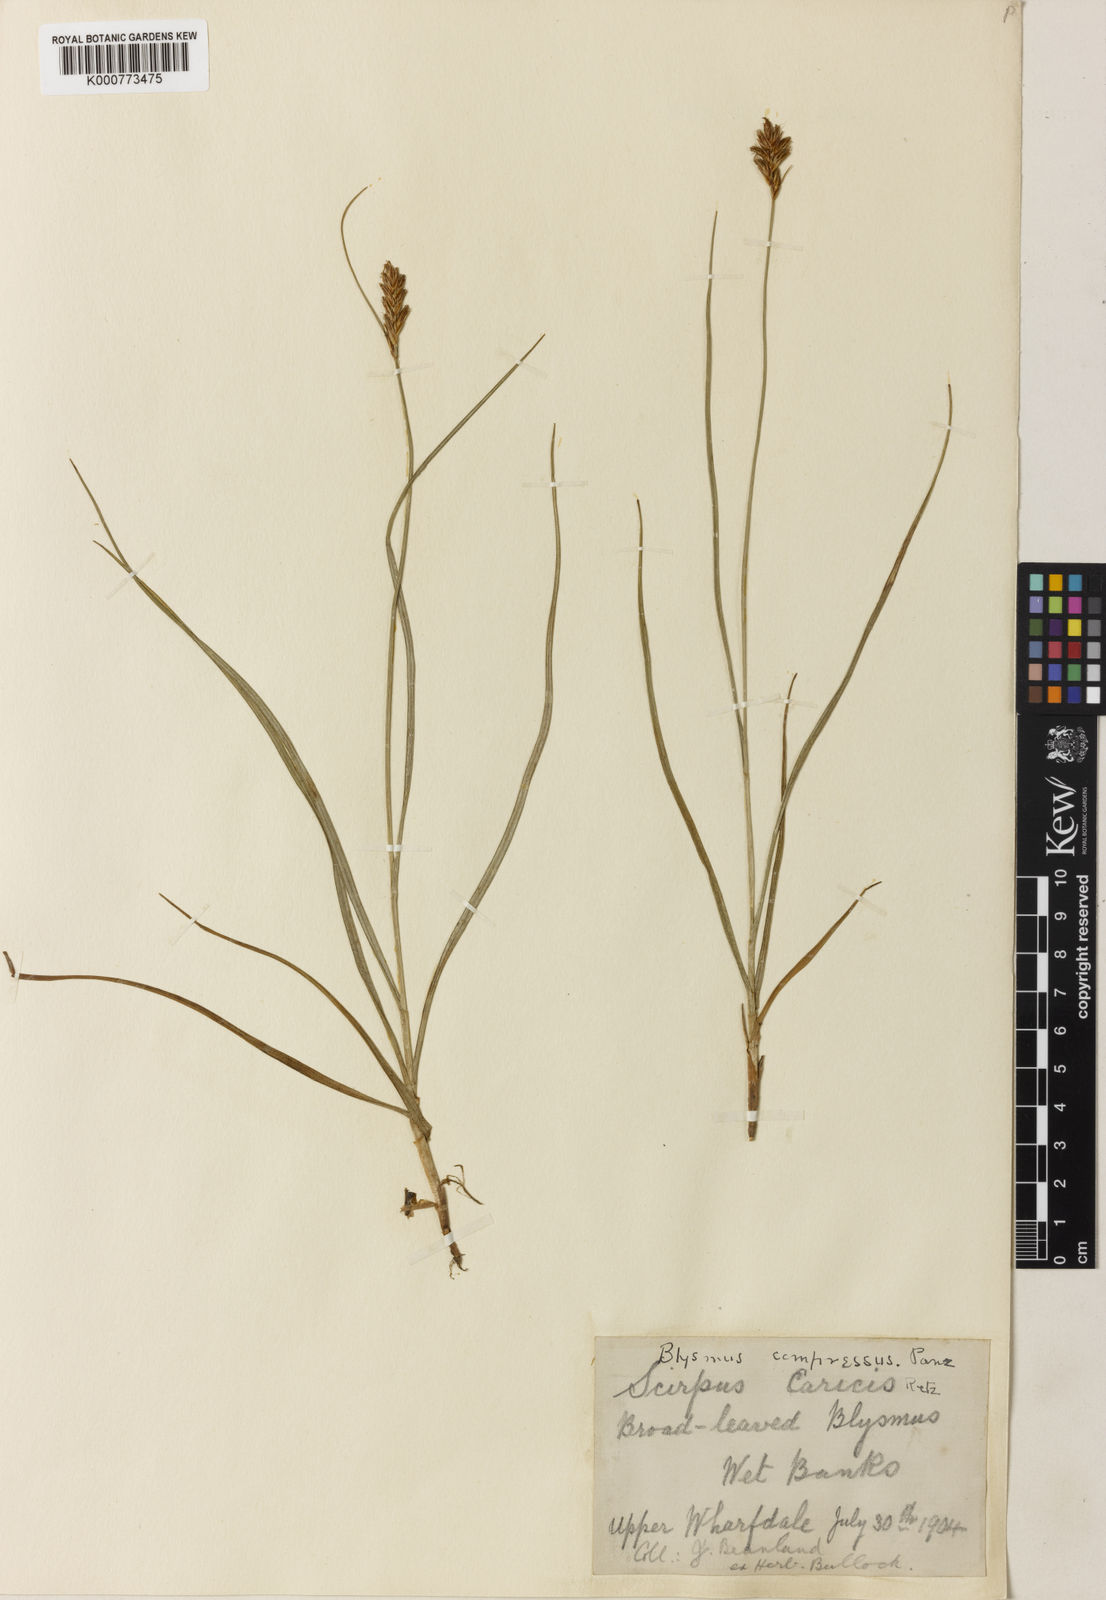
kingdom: Plantae
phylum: Tracheophyta
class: Liliopsida
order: Poales
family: Cyperaceae
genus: Blysmus
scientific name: Blysmus compressus
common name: Flat-sedge
